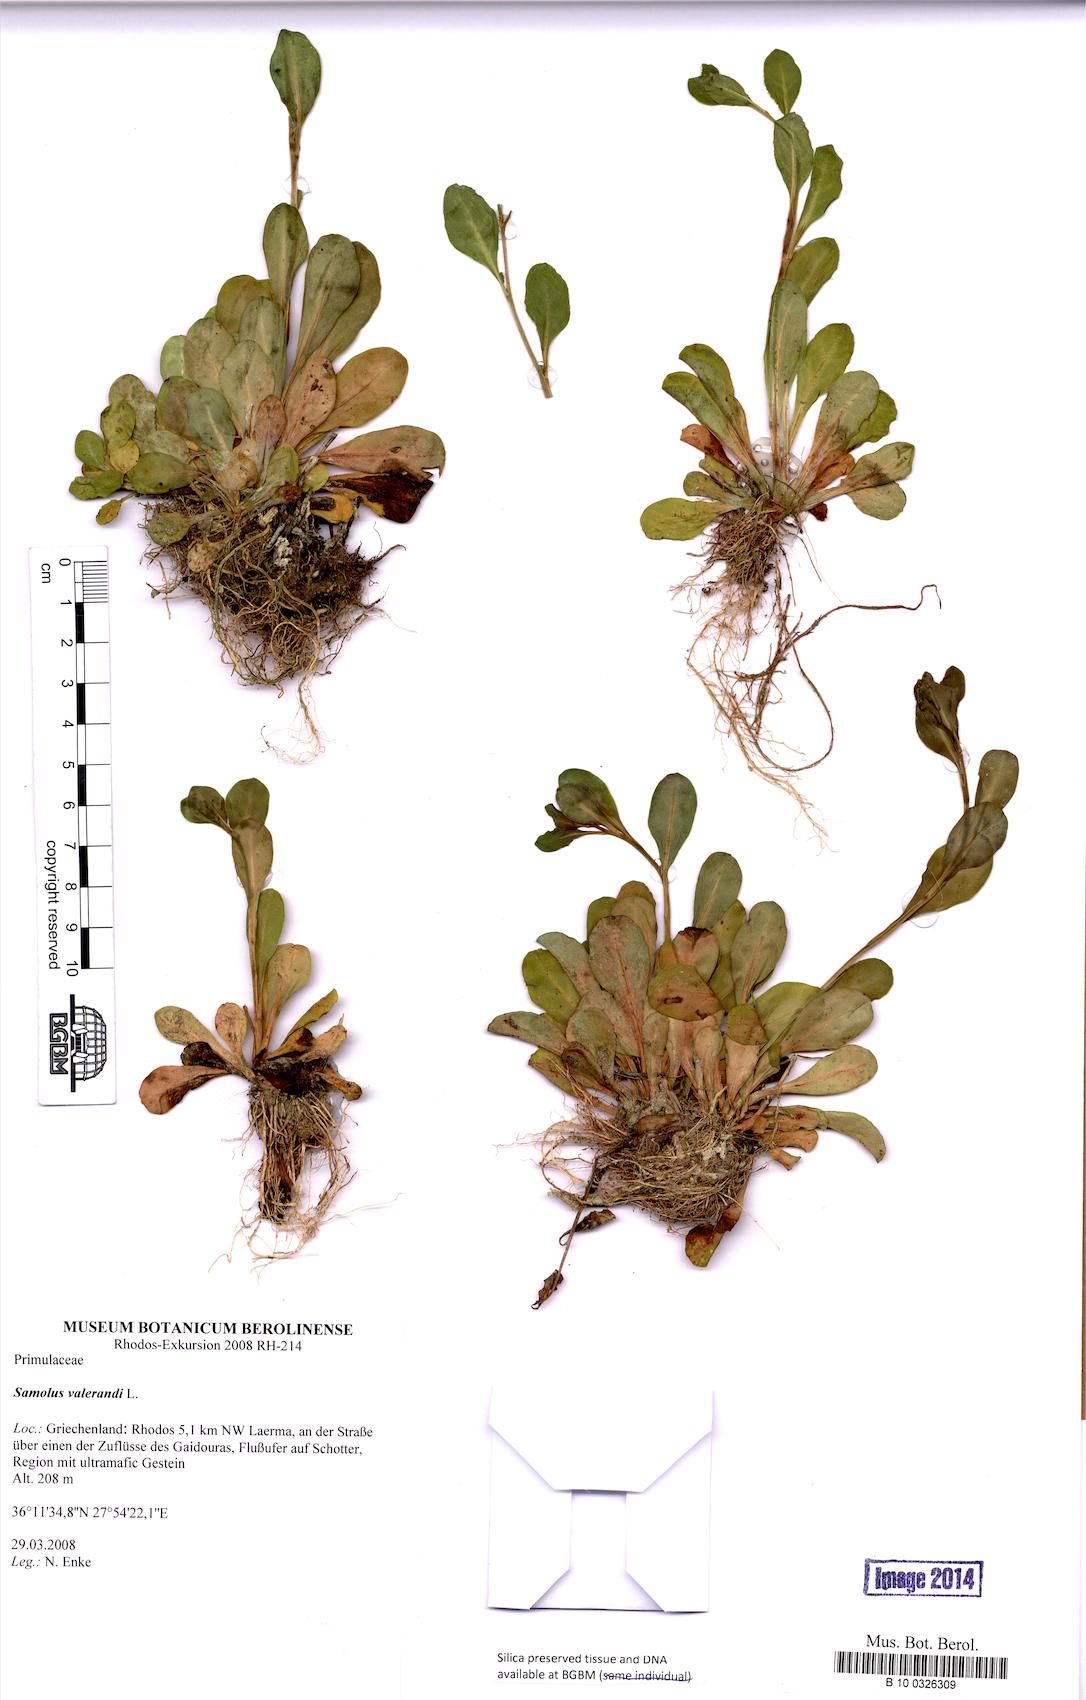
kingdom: Plantae
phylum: Tracheophyta
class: Magnoliopsida
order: Ericales
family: Primulaceae
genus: Samolus
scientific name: Samolus valerandi
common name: Brookweed
